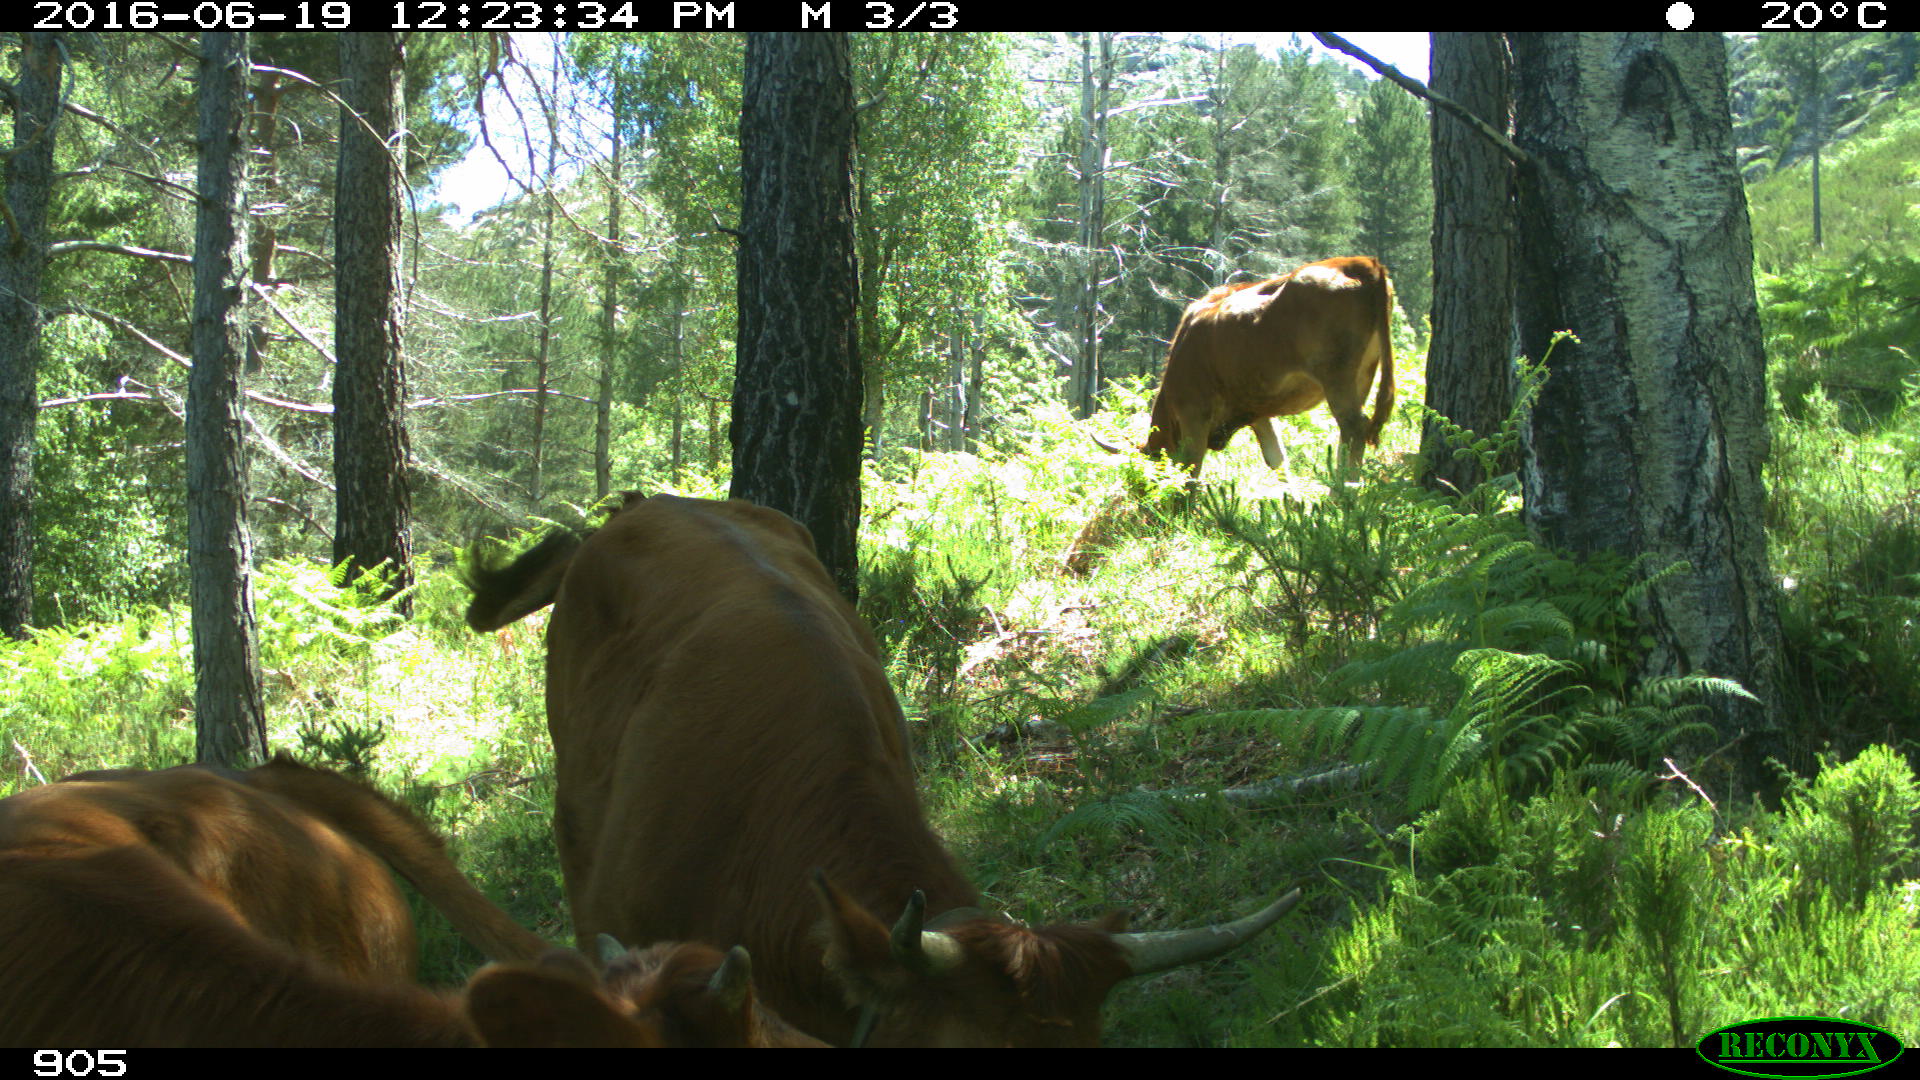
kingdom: Animalia
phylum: Chordata
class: Mammalia
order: Artiodactyla
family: Bovidae
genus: Bos
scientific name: Bos taurus
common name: Domesticated cattle
